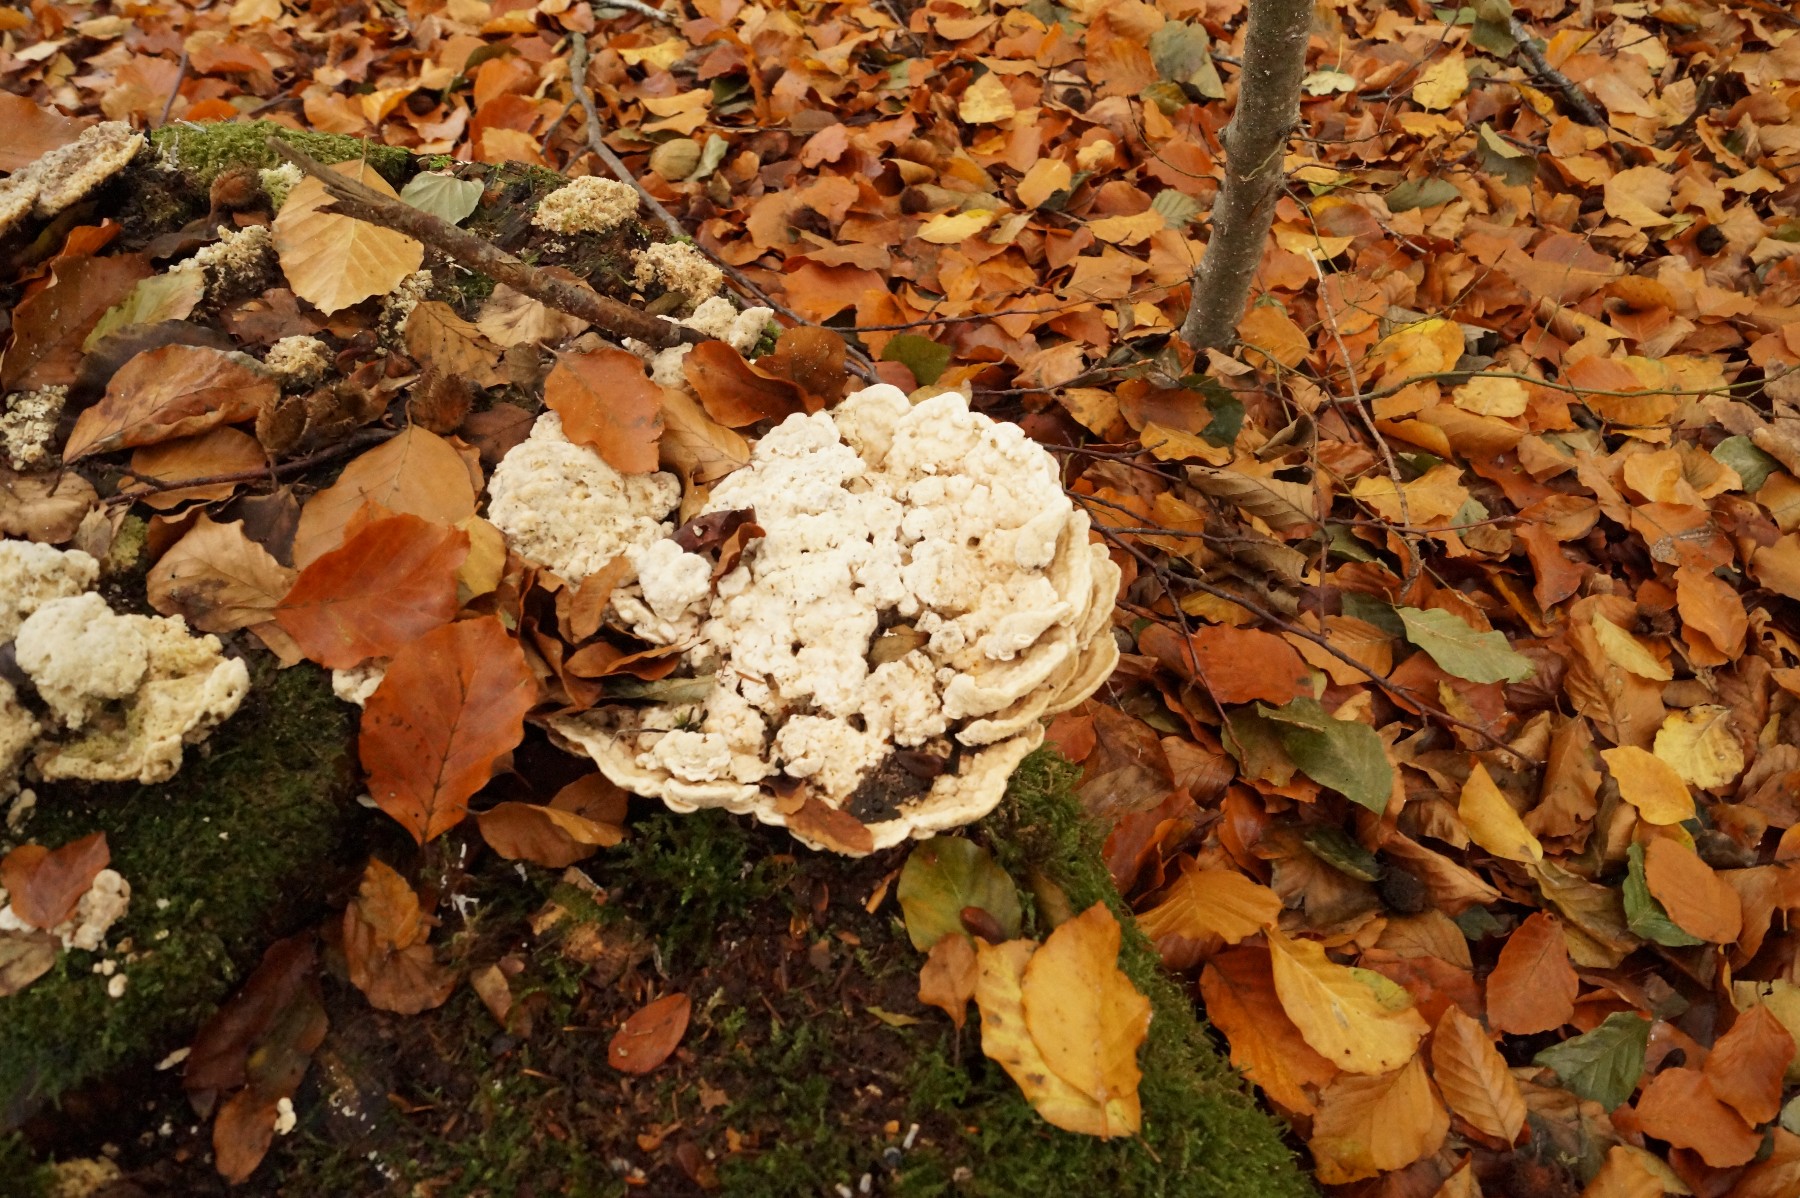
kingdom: Fungi
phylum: Basidiomycota
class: Agaricomycetes
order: Polyporales
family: Polyporaceae
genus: Trametes
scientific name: Trametes gibbosa
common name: puklet læderporesvamp
